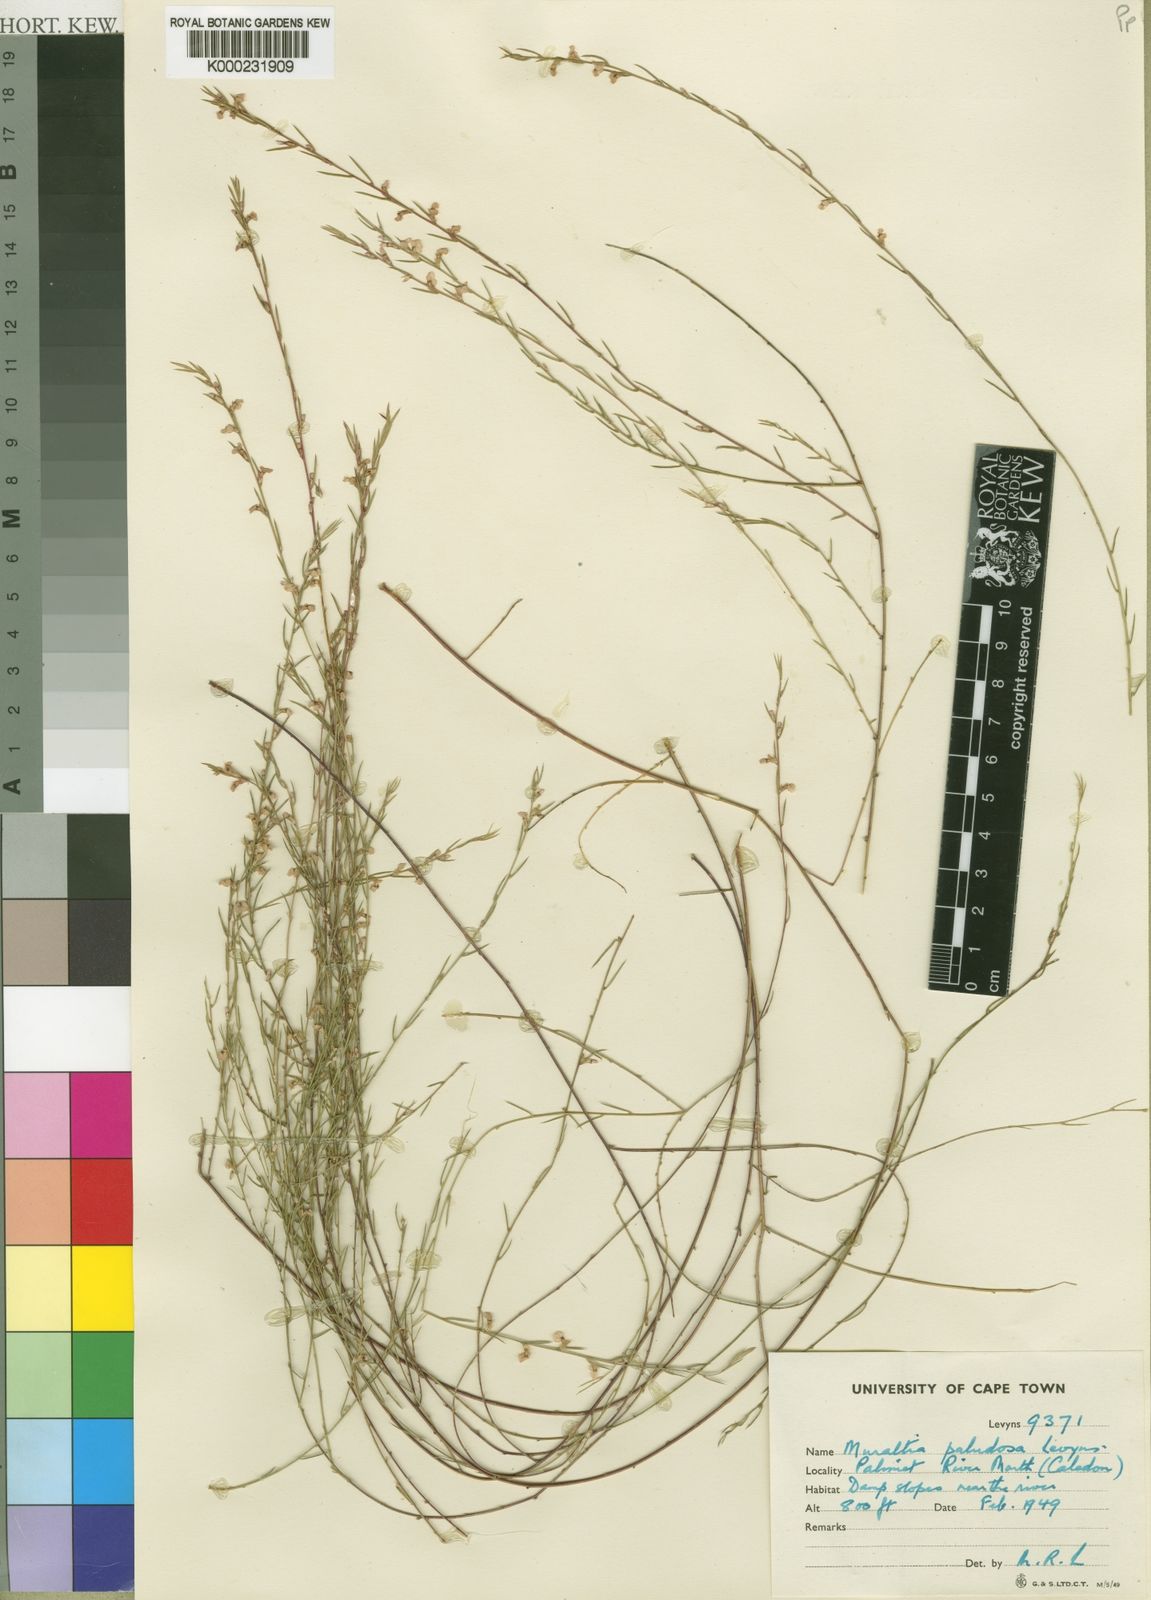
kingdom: Plantae
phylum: Tracheophyta
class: Magnoliopsida
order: Fabales
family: Polygalaceae
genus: Muraltia
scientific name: Muraltia paludosa
